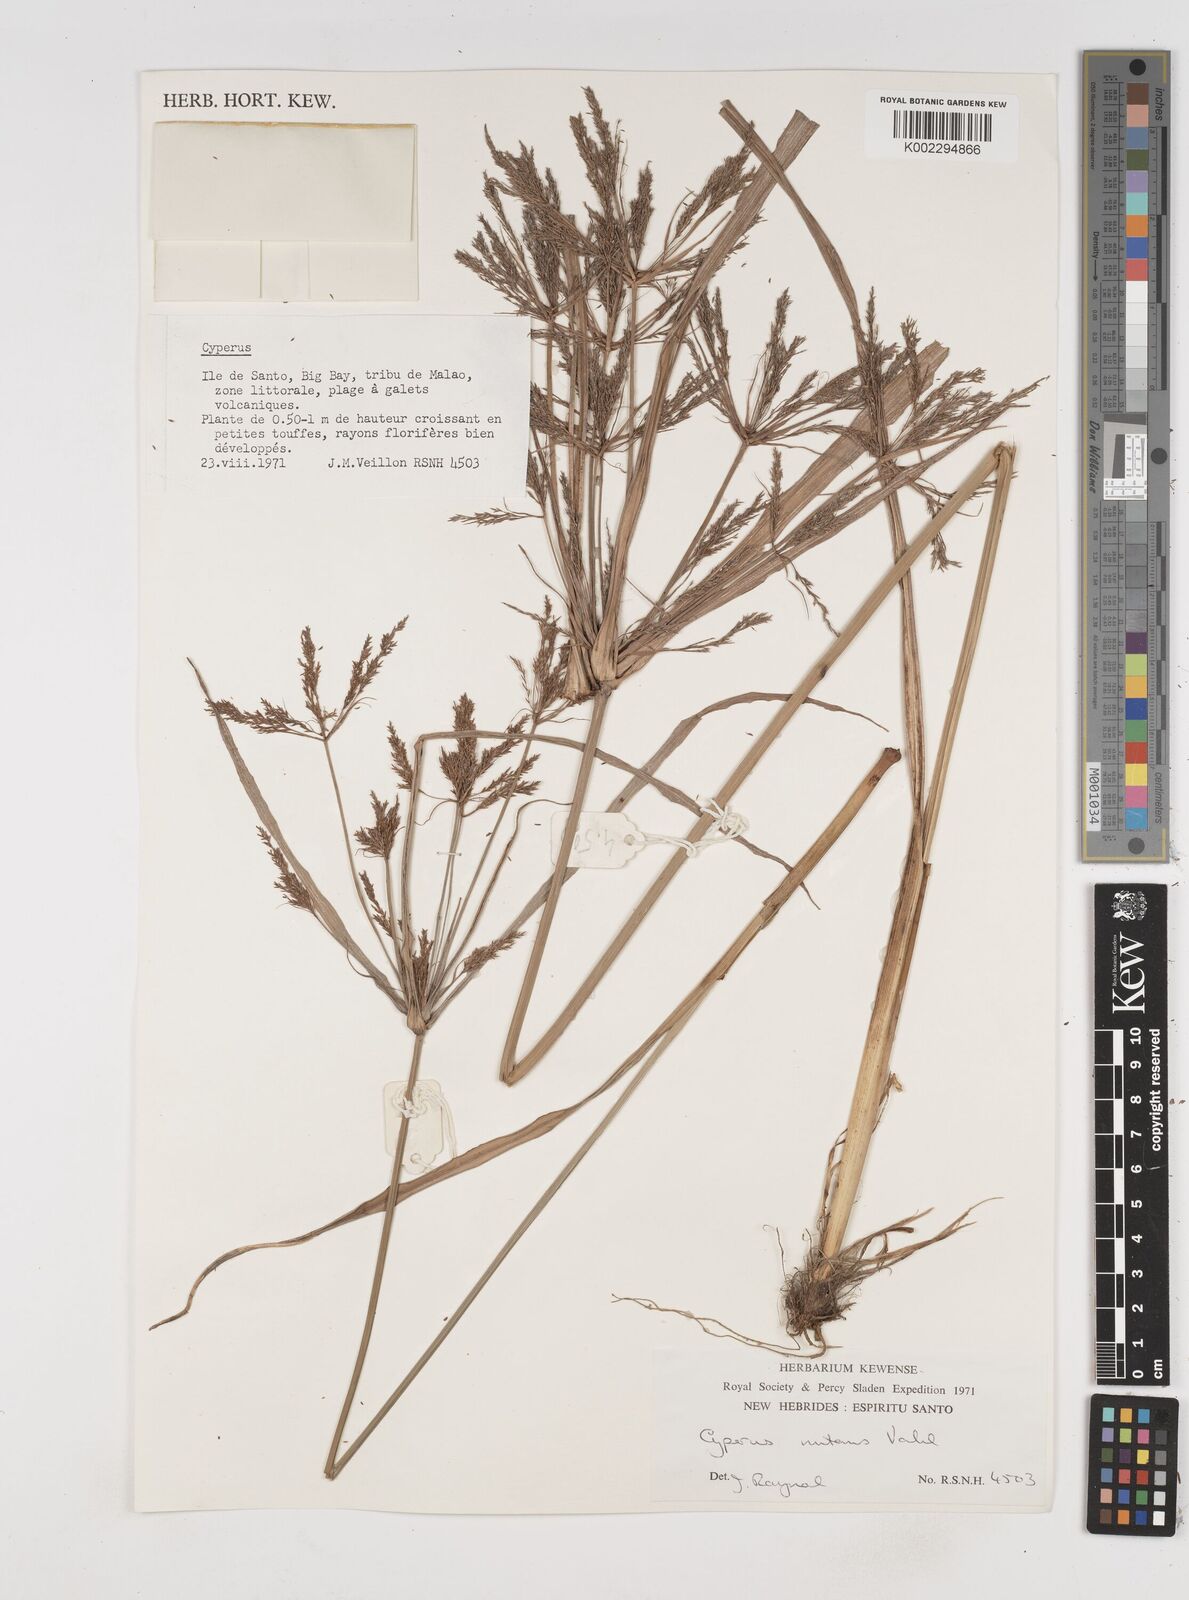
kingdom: Plantae
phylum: Tracheophyta
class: Liliopsida
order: Poales
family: Cyperaceae
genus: Cyperus
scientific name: Cyperus nutans
